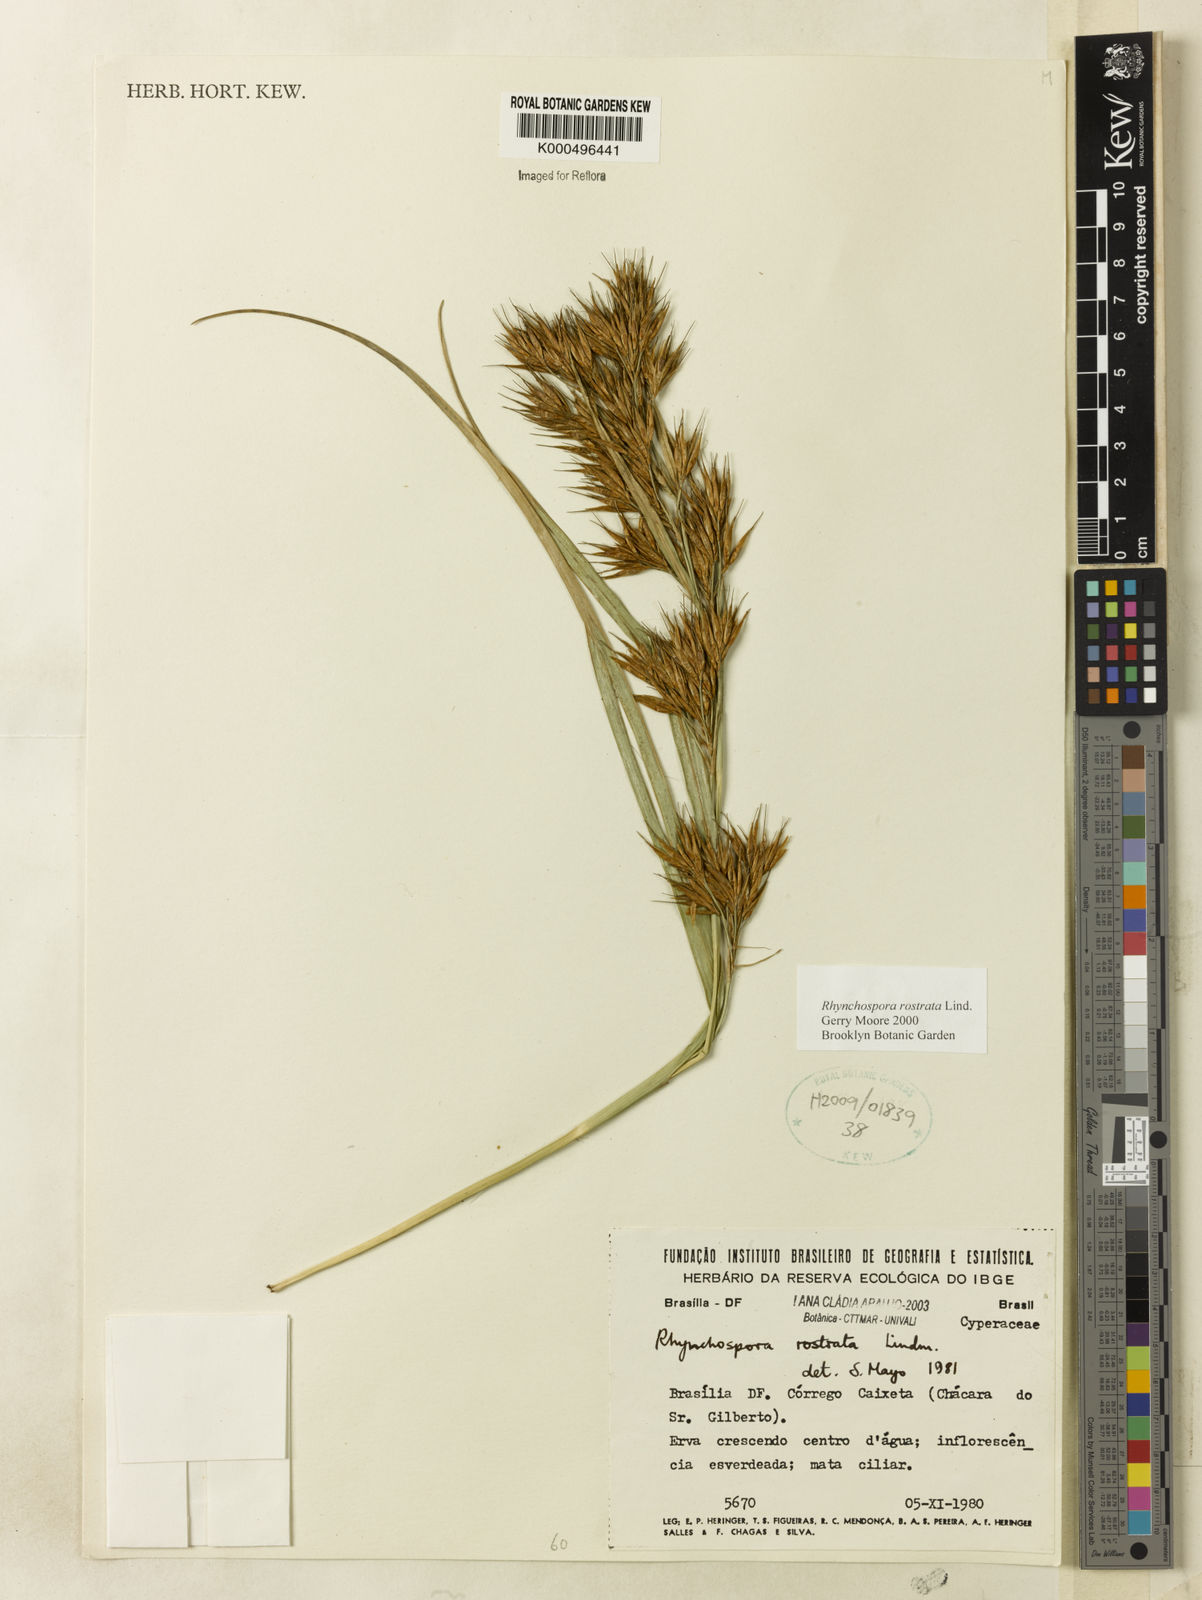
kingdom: Plantae
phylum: Tracheophyta
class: Liliopsida
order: Poales
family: Cyperaceae
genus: Rhynchospora
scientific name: Rhynchospora rostrata
